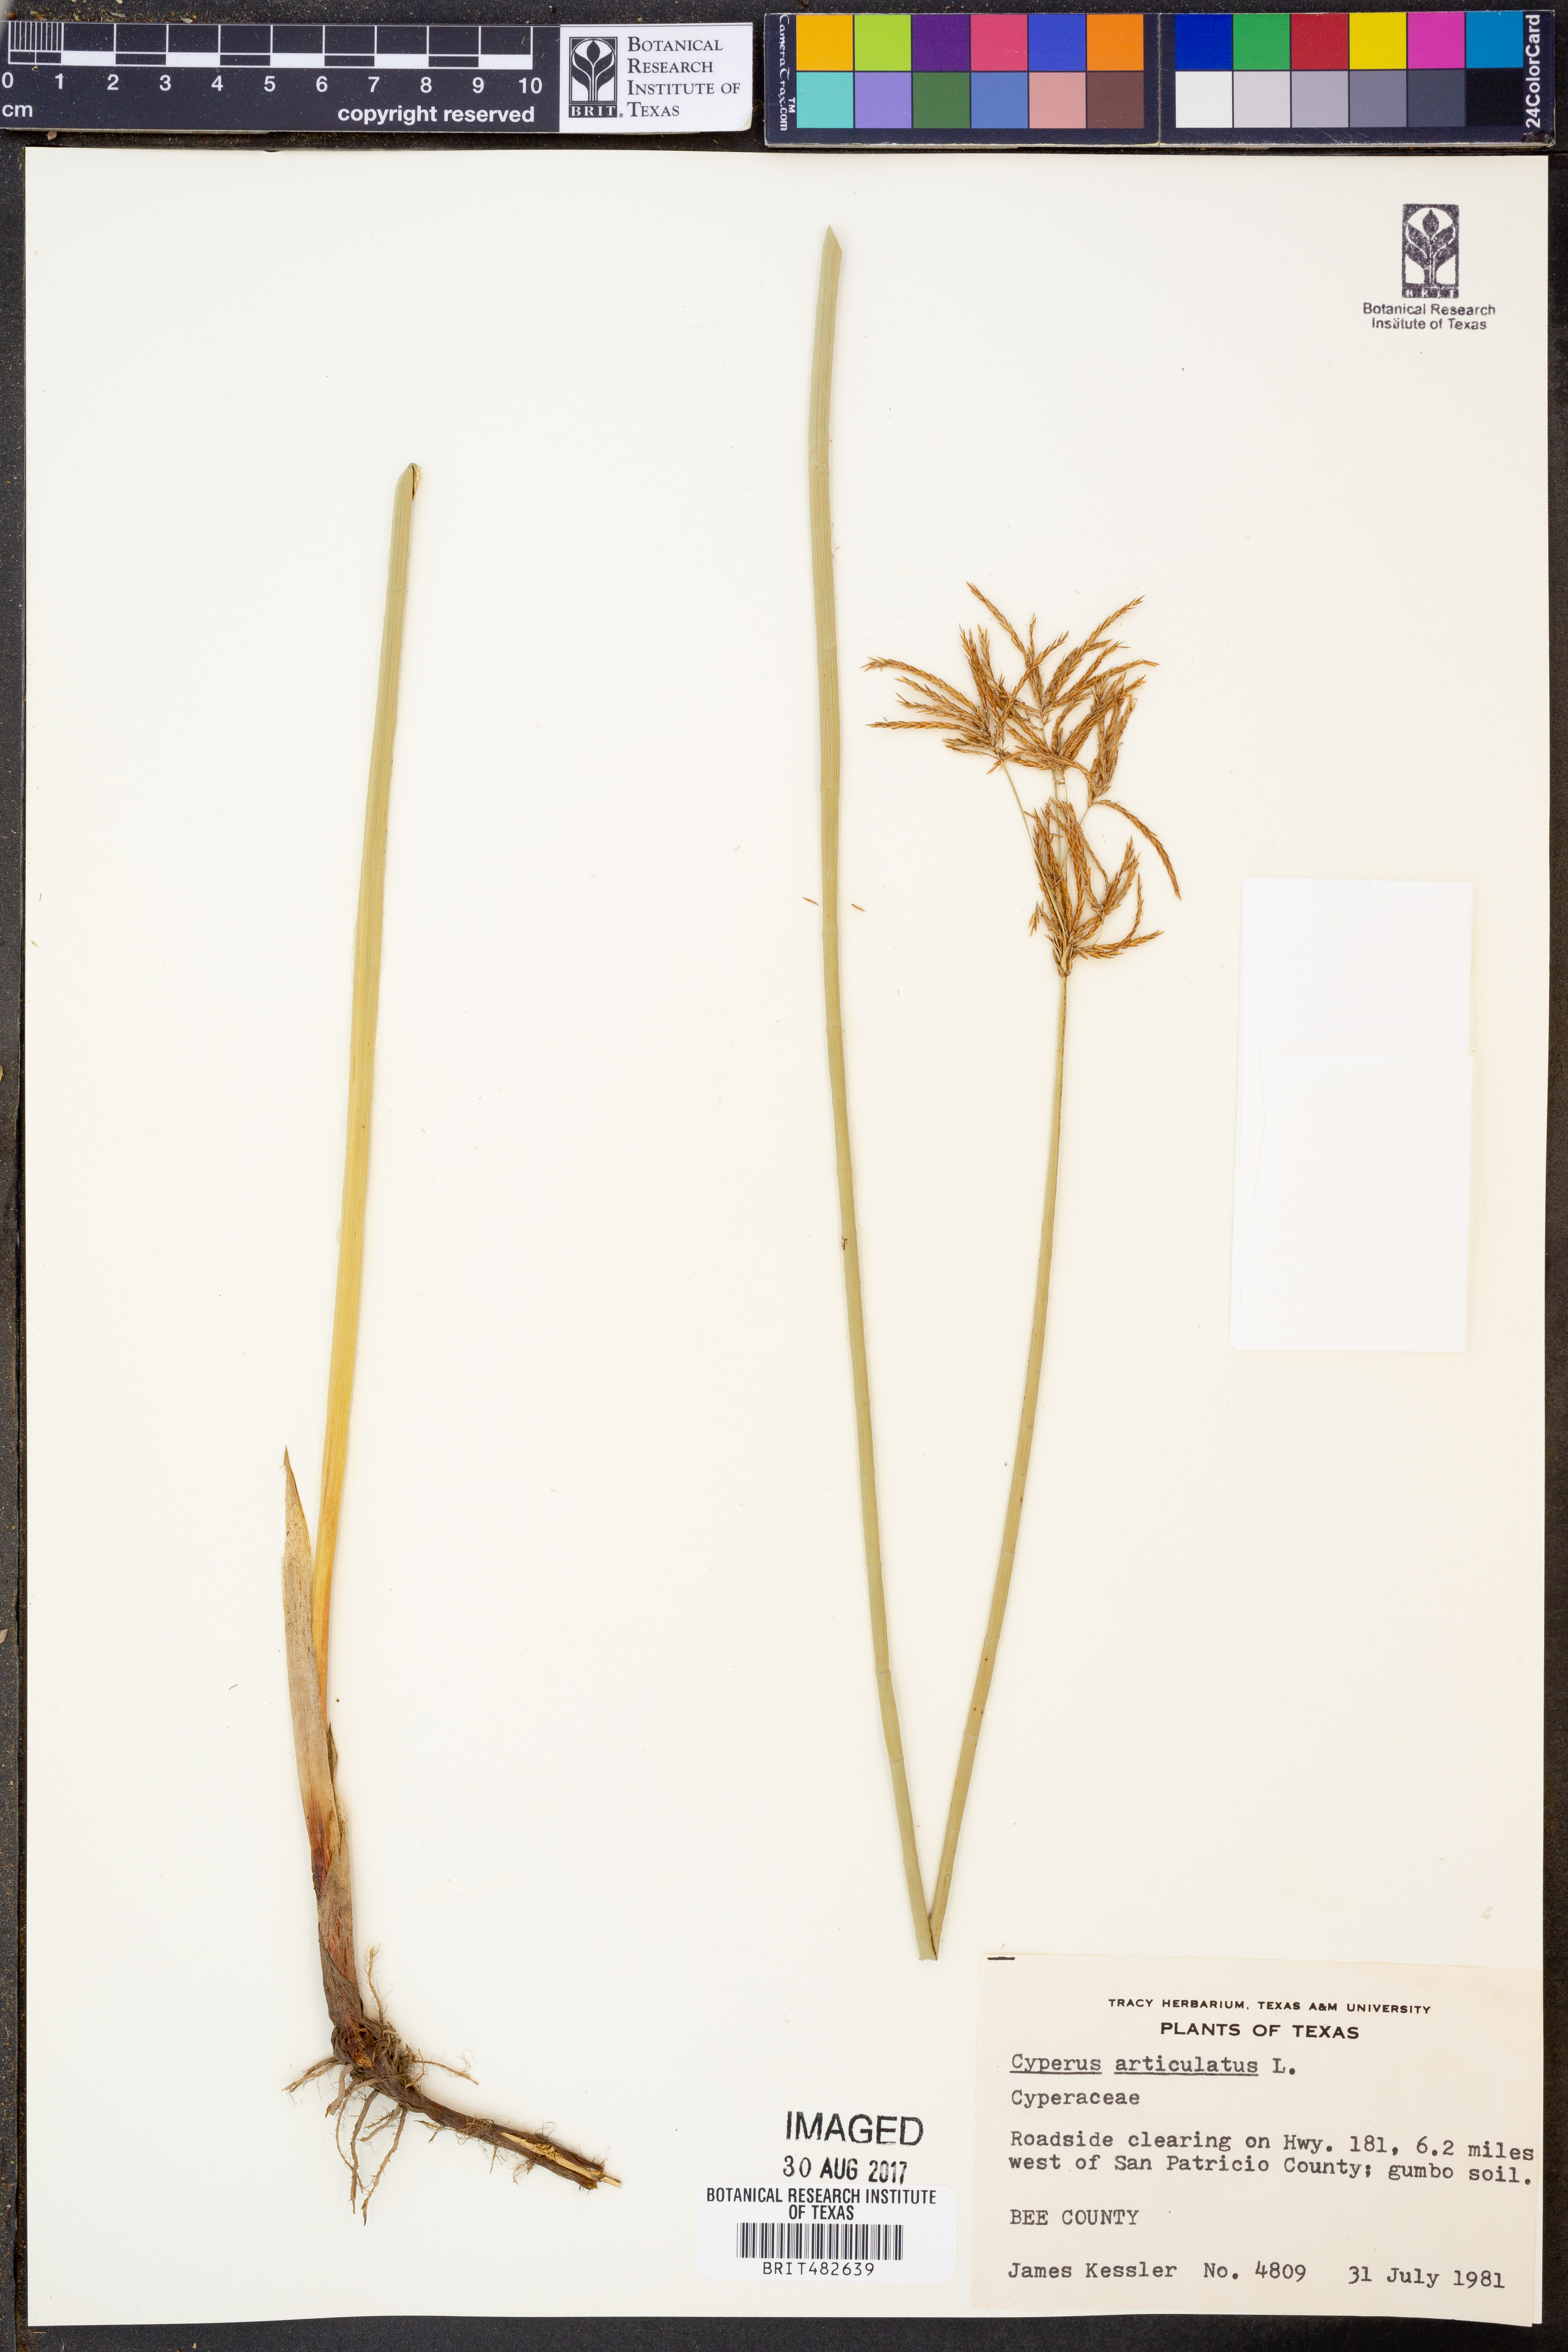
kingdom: Plantae
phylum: Tracheophyta
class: Liliopsida
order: Poales
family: Cyperaceae
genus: Cyperus
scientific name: Cyperus articulatus
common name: Jointed flatsedge
